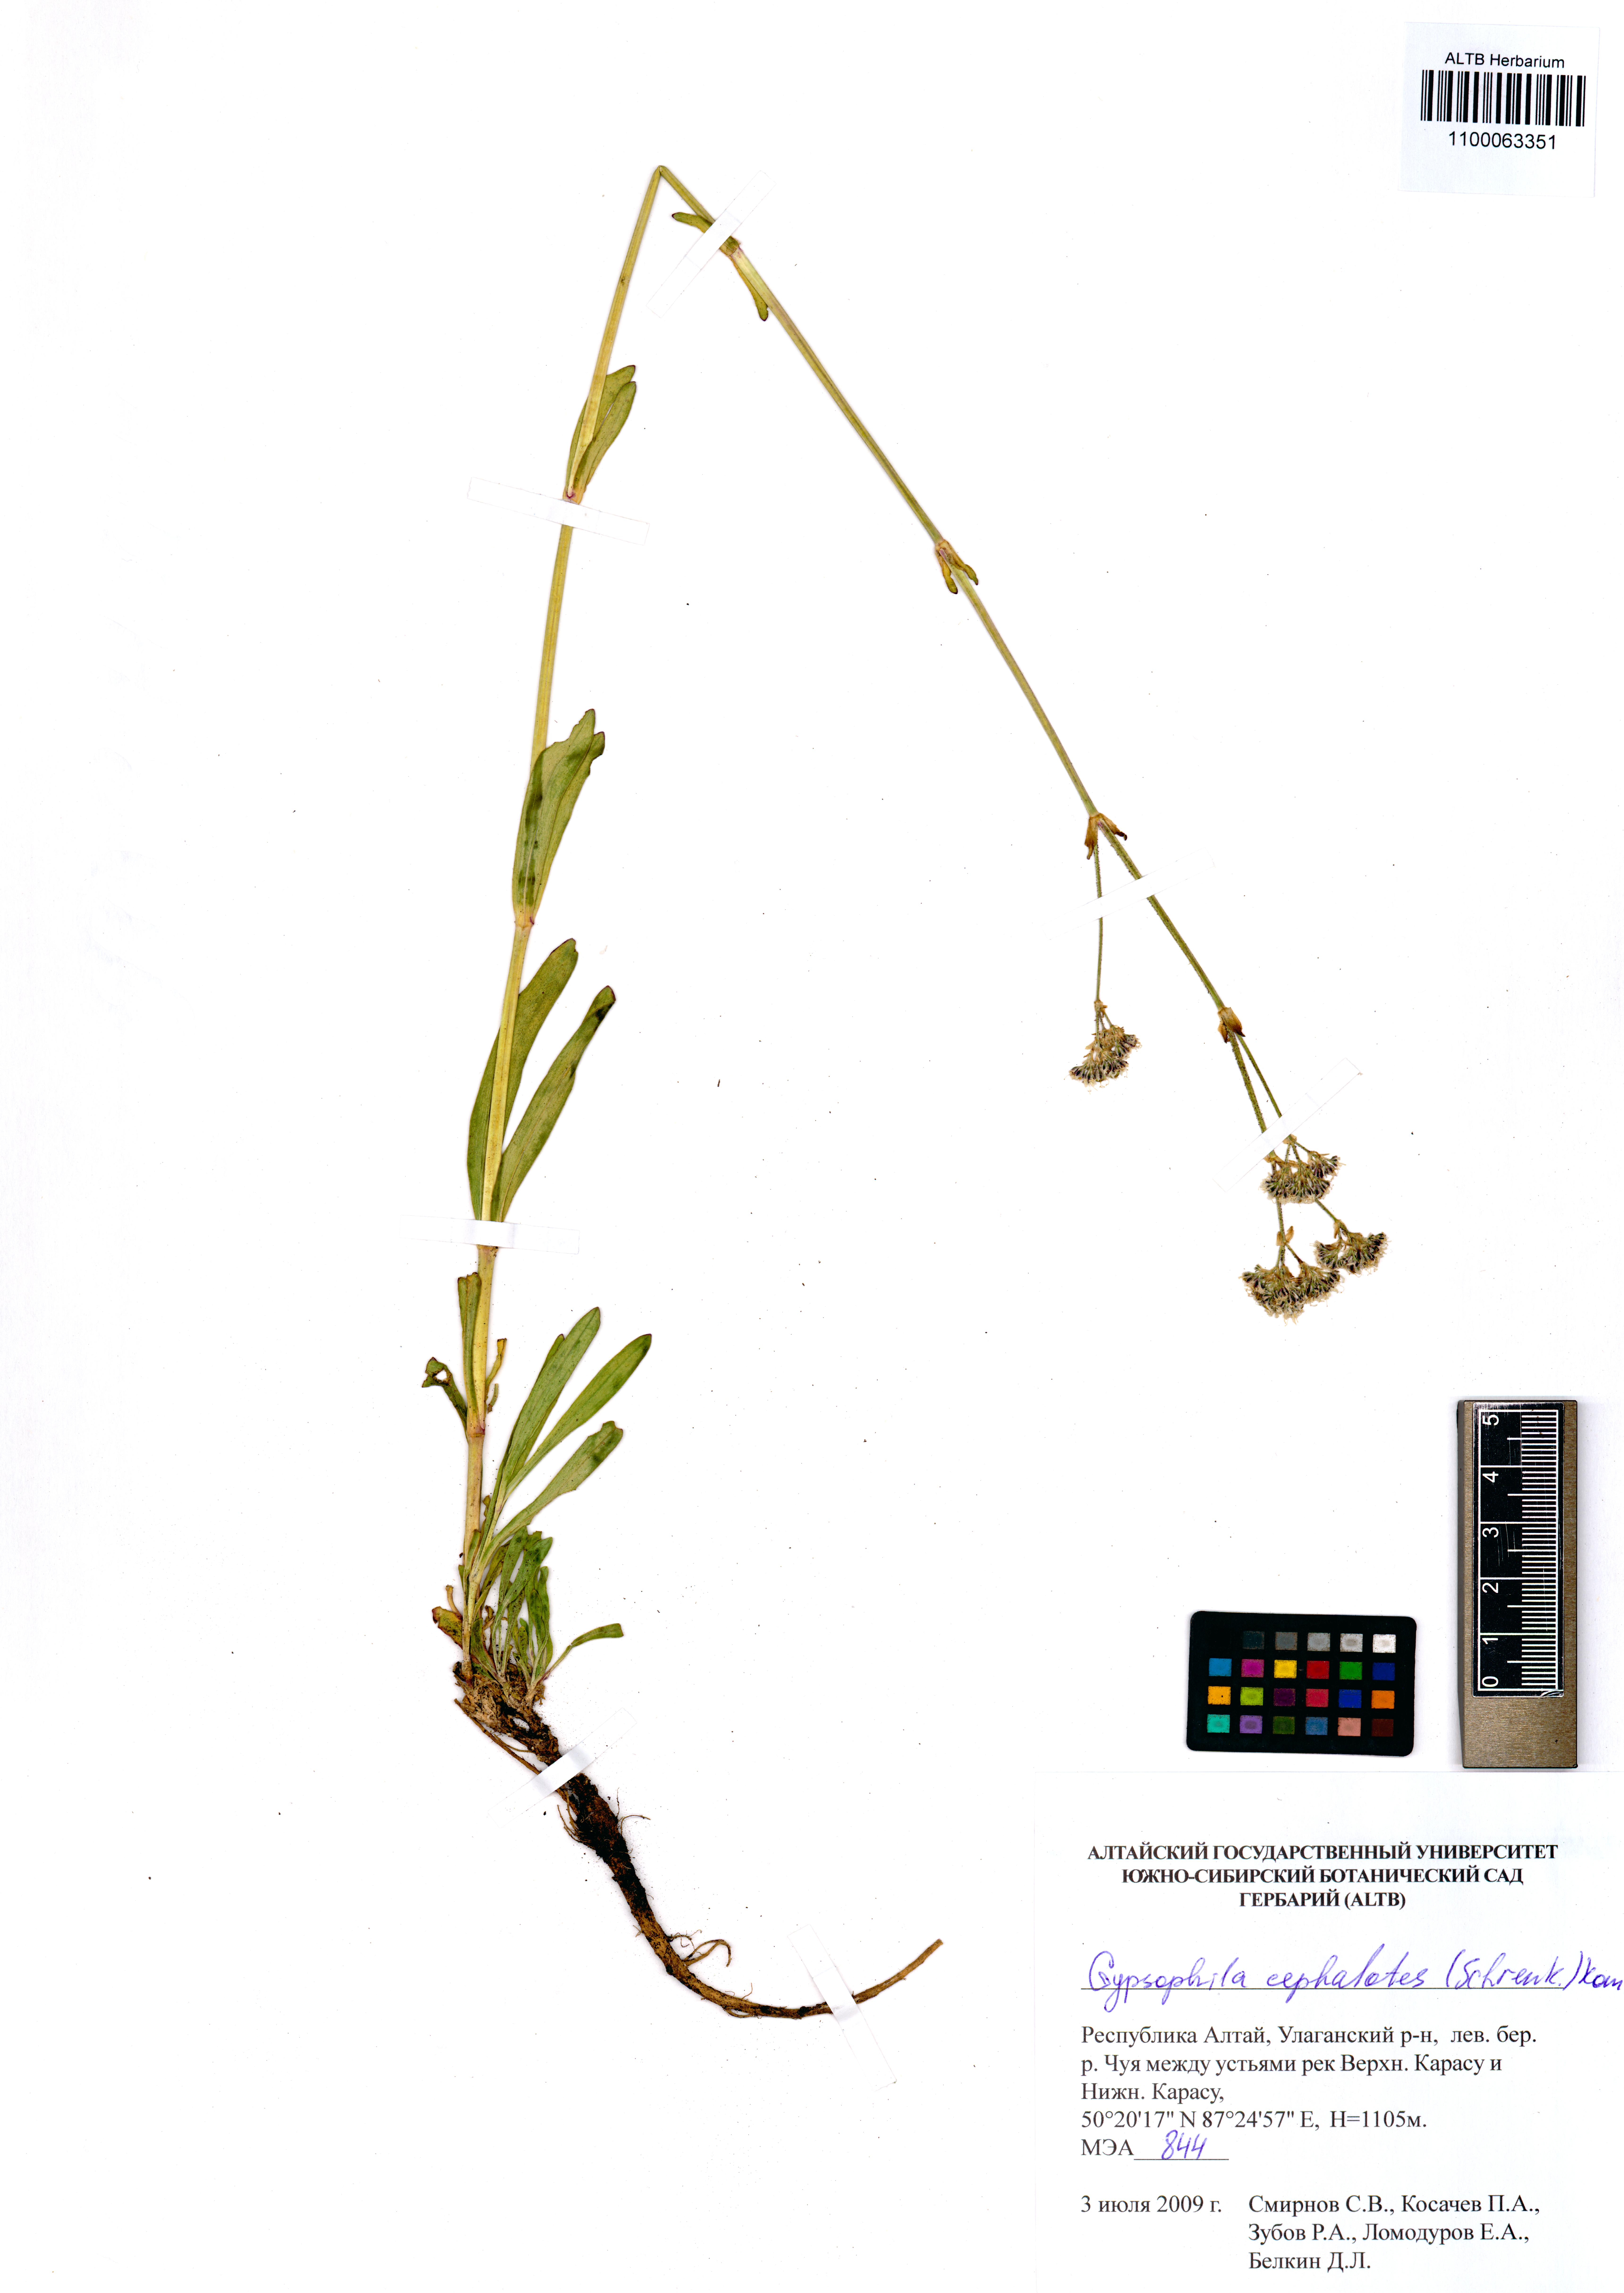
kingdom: Plantae
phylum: Tracheophyta
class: Magnoliopsida
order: Caryophyllales
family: Caryophyllaceae
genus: Gypsophila
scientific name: Gypsophila cephalotes
